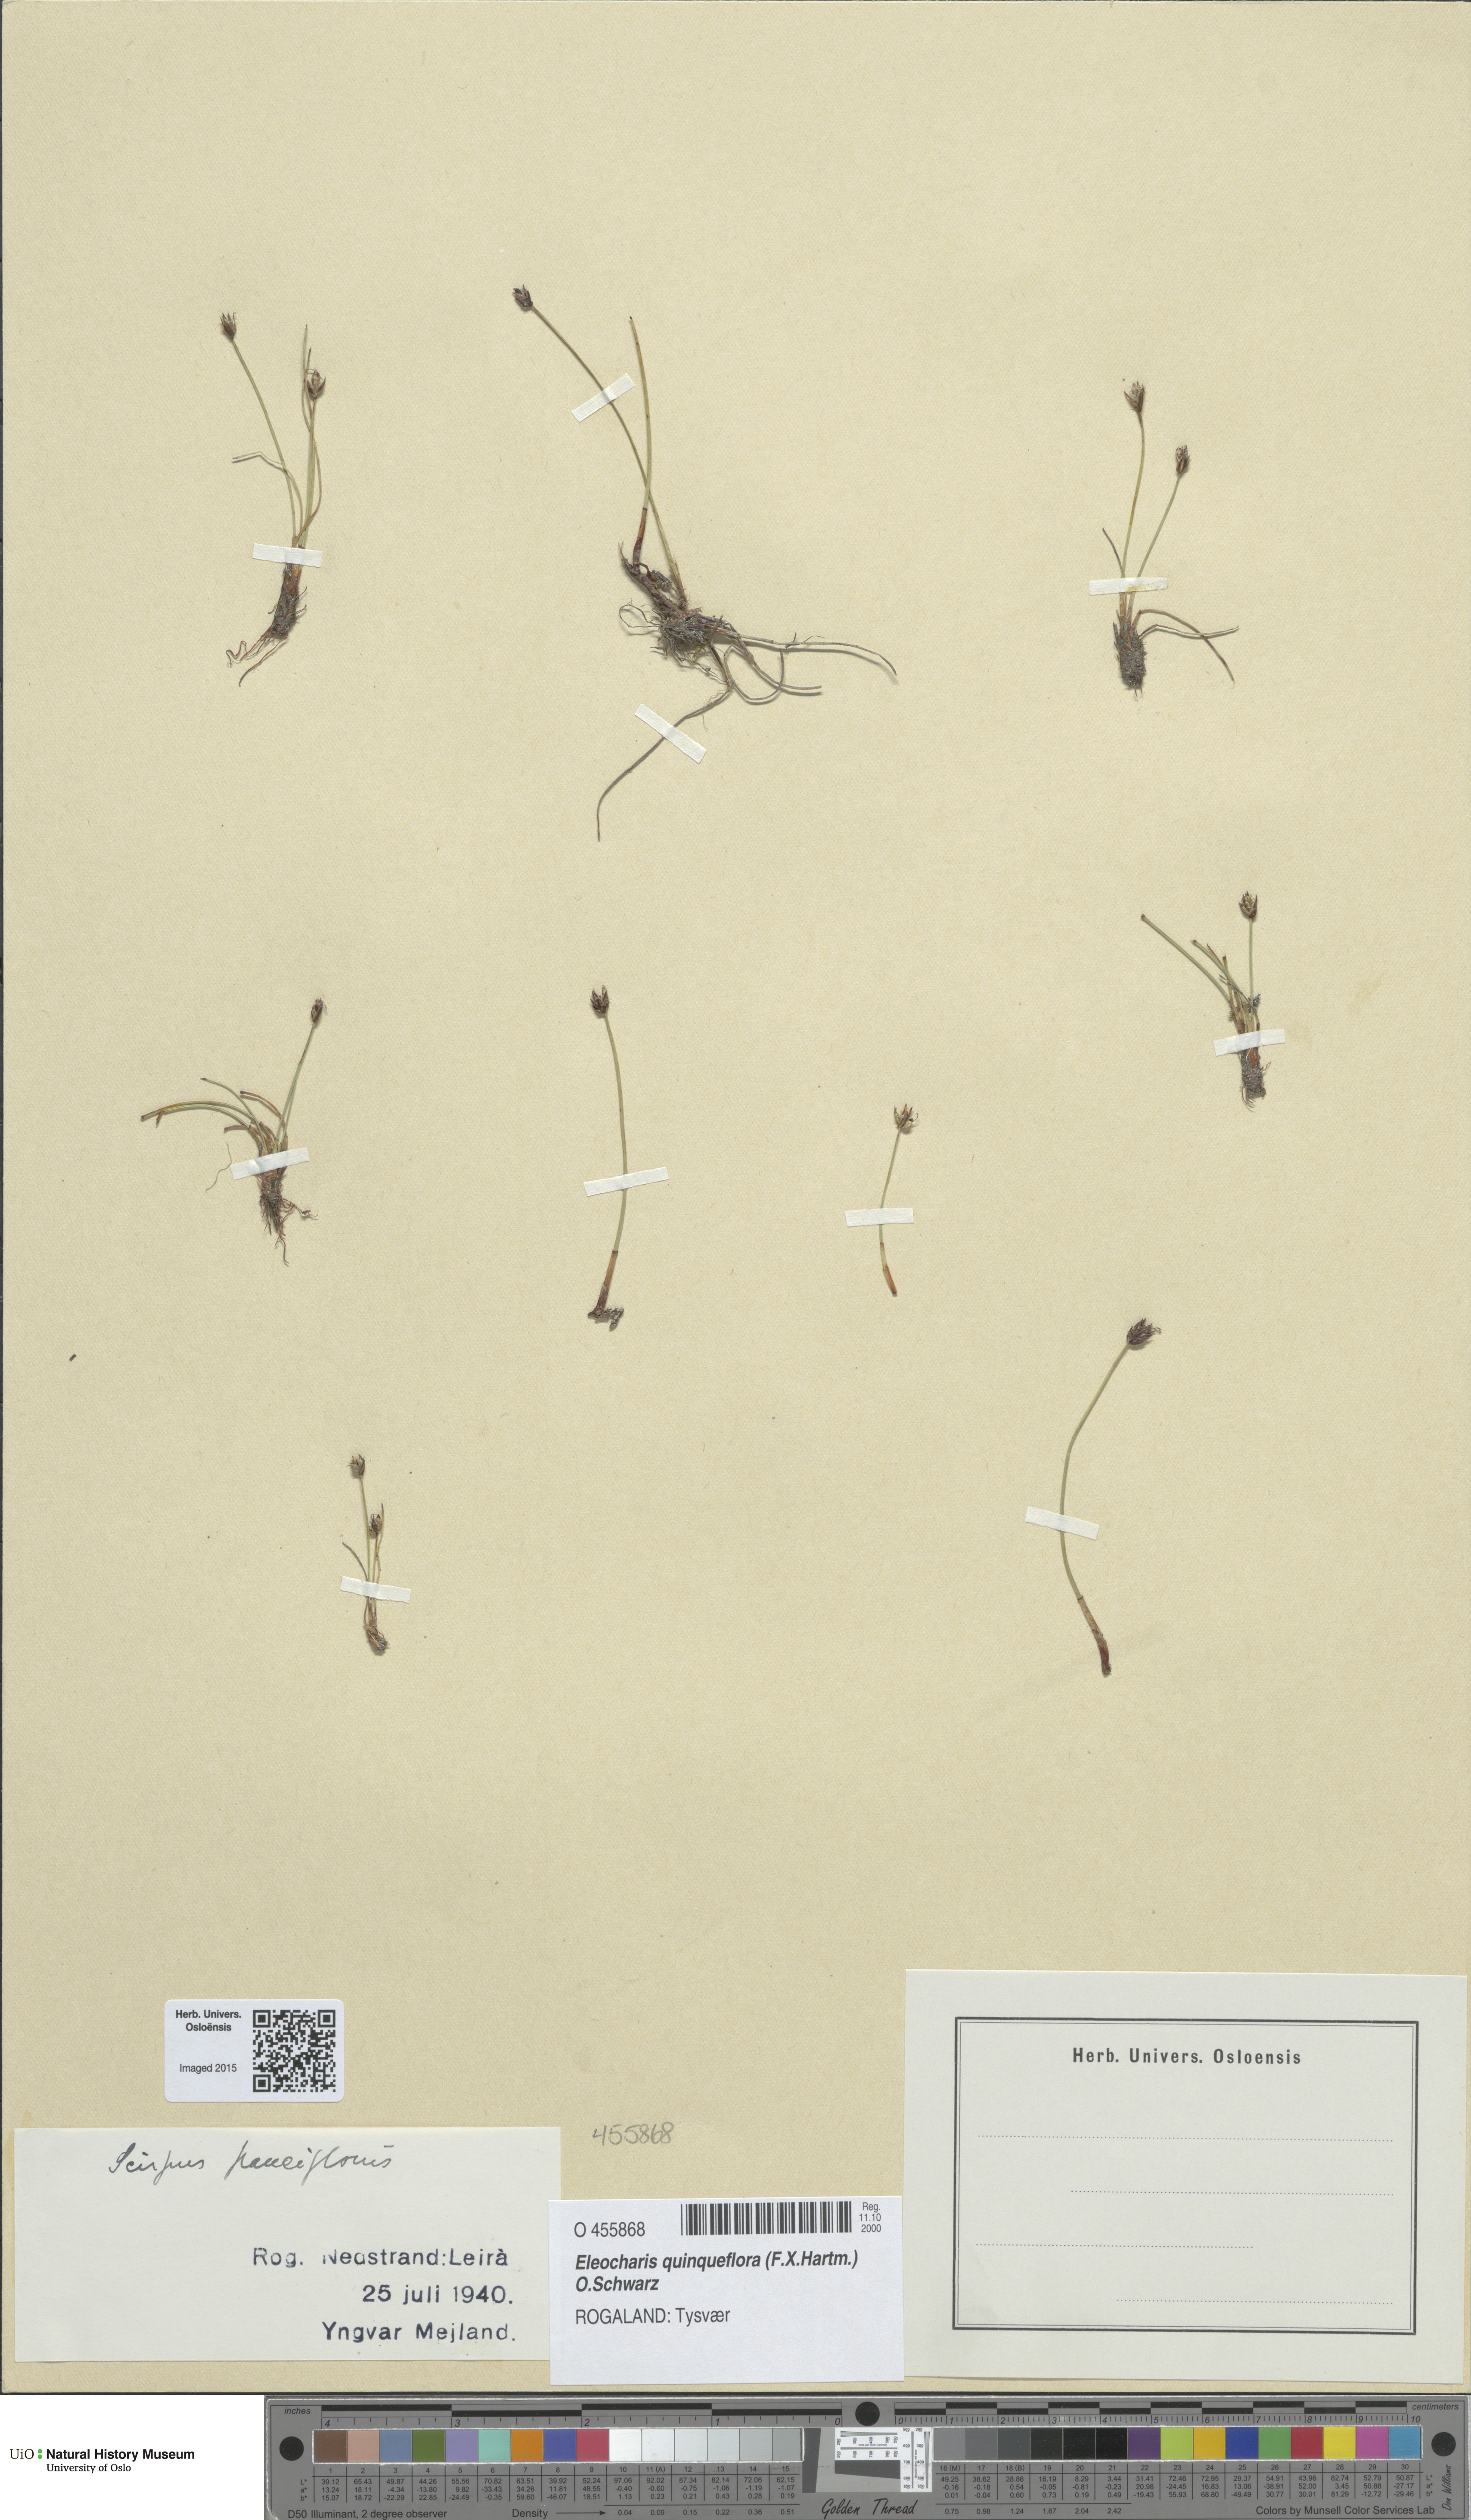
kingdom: Plantae
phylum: Tracheophyta
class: Liliopsida
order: Poales
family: Cyperaceae
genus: Eleocharis
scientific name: Eleocharis quinqueflora
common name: Few-flowered spike-rush
